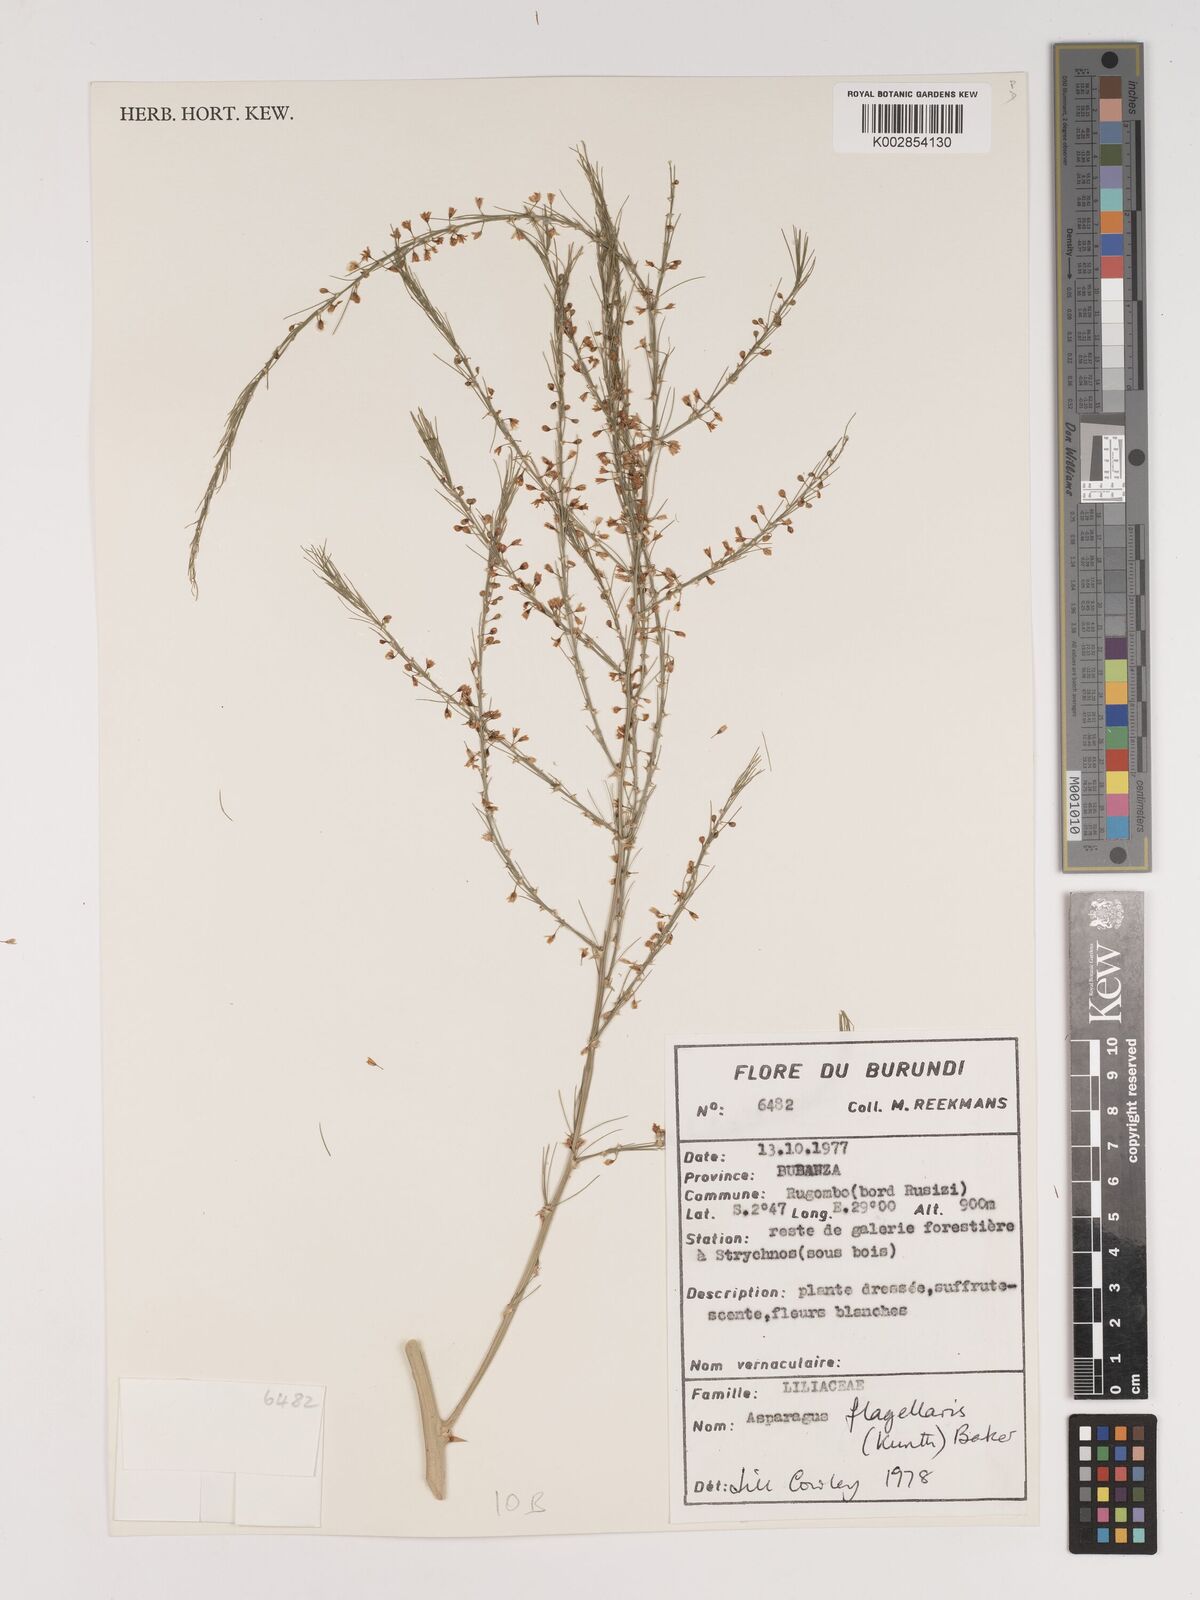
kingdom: Plantae
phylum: Tracheophyta
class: Liliopsida
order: Asparagales
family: Asparagaceae
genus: Asparagus
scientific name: Asparagus flagellaris
